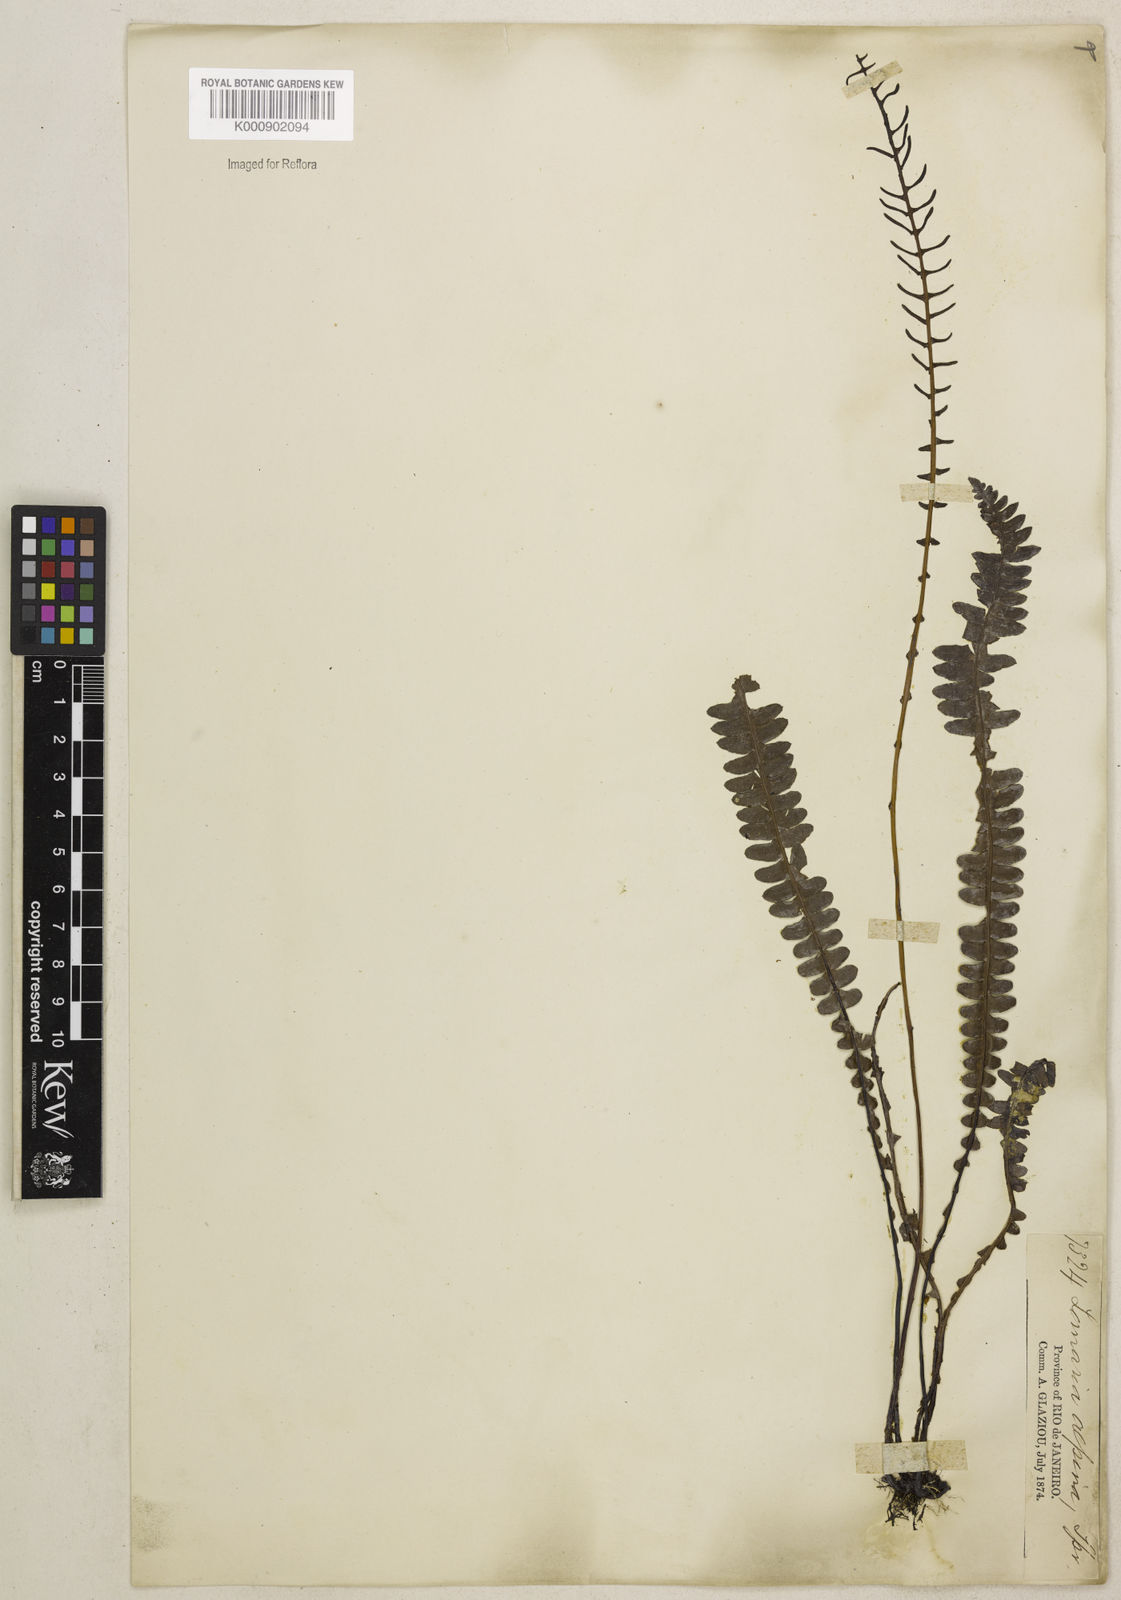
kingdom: Plantae
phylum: Tracheophyta
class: Polypodiopsida
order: Polypodiales
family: Blechnaceae
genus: Austroblechnum
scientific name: Austroblechnum penna-marina
